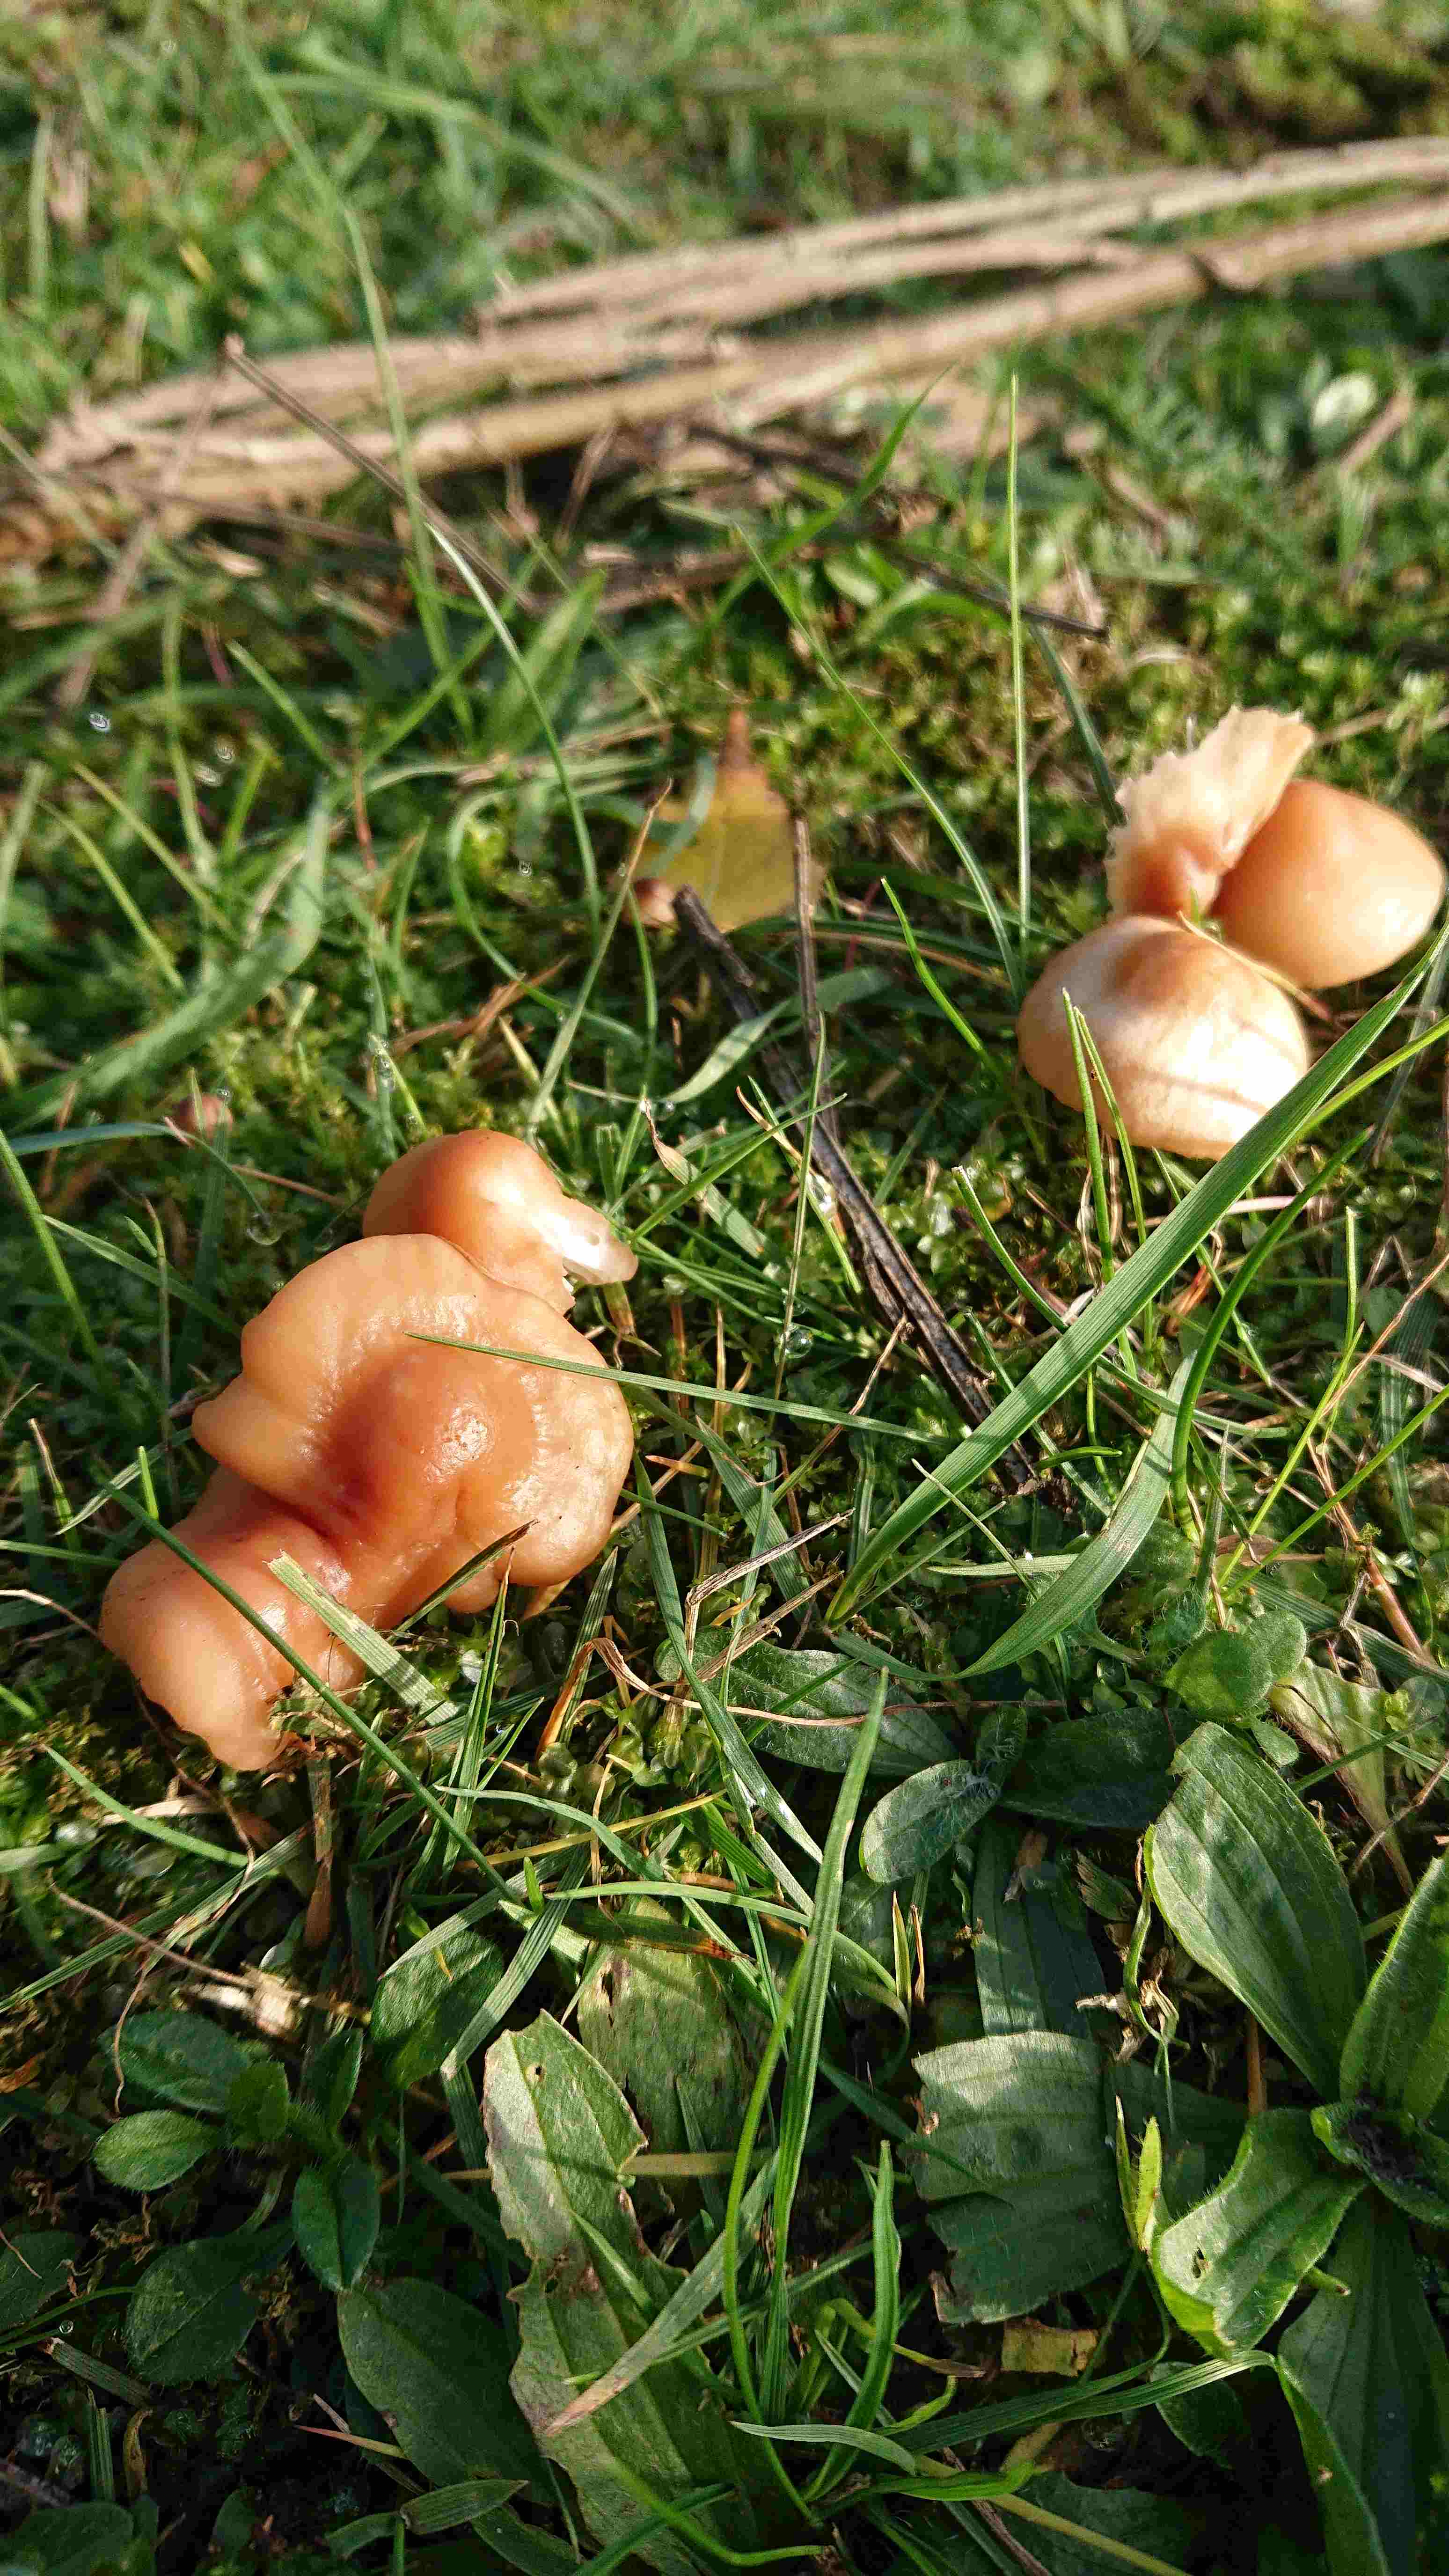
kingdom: Fungi
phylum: Basidiomycota
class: Agaricomycetes
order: Agaricales
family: Hygrophoraceae
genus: Cuphophyllus
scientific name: Cuphophyllus pratensis
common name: eng-vokshat
